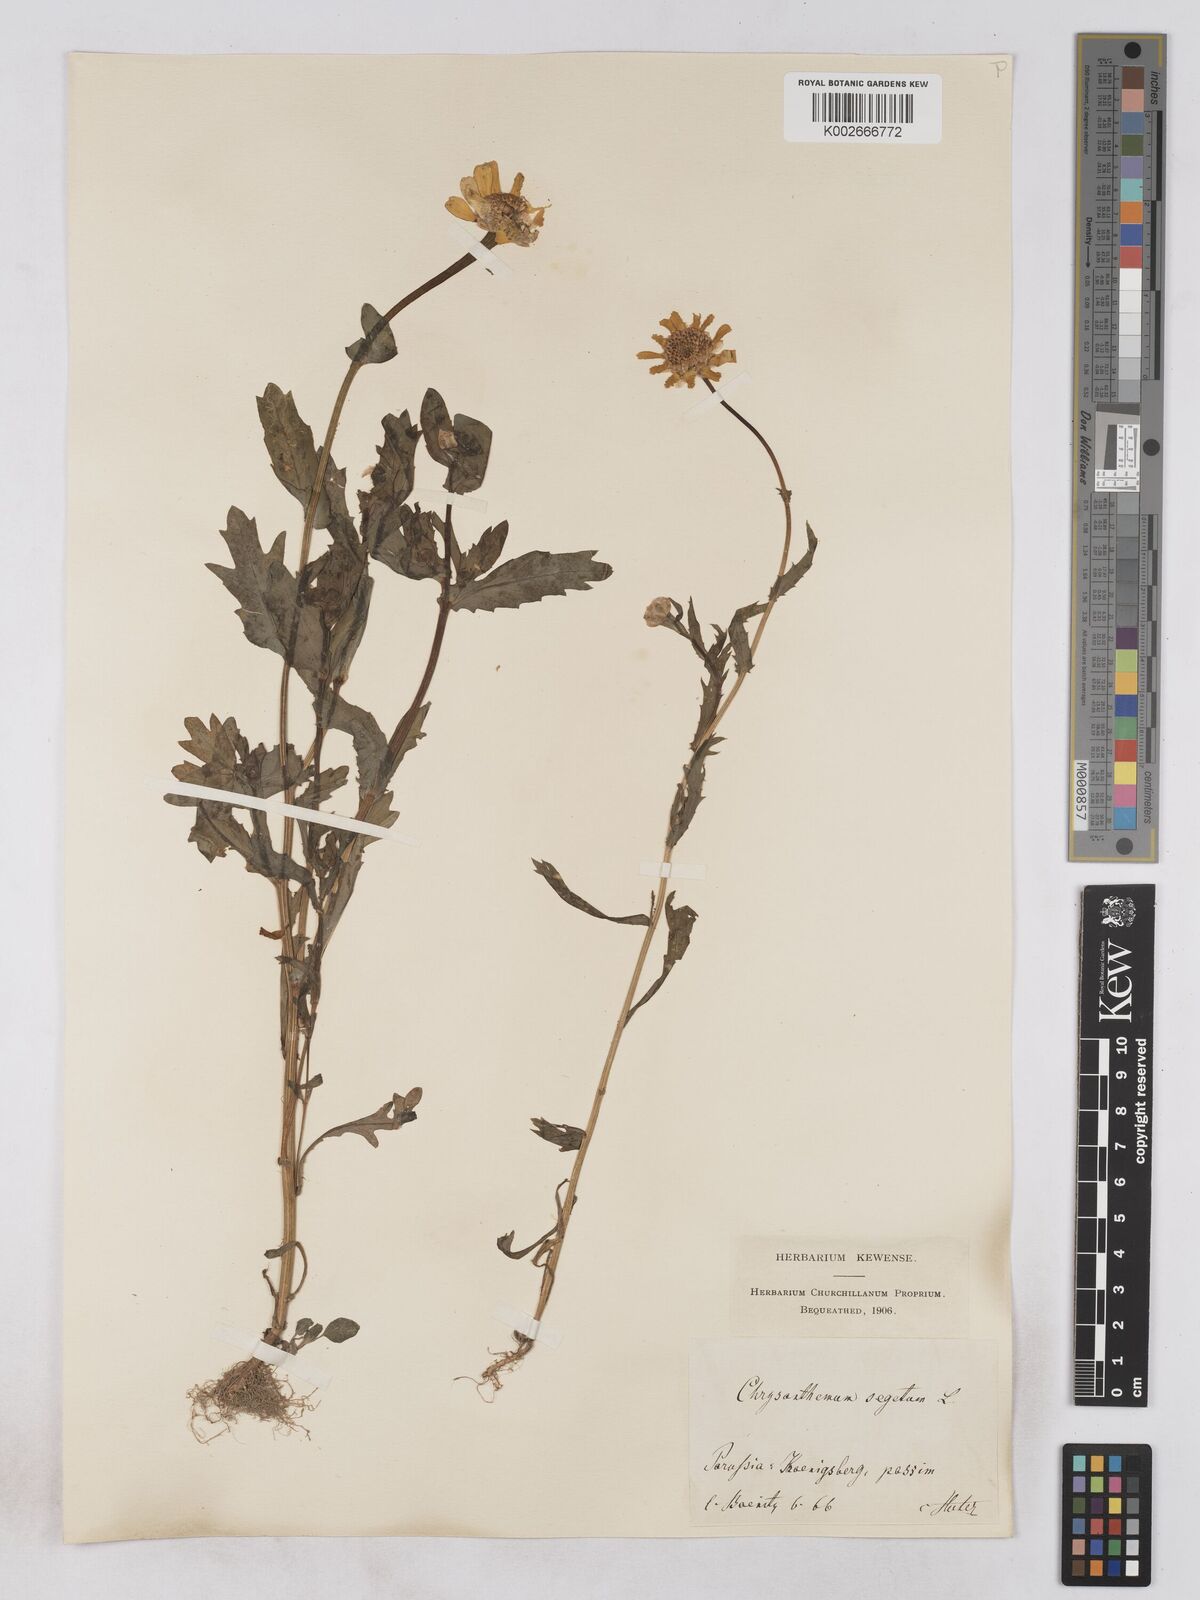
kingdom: Plantae
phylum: Tracheophyta
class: Magnoliopsida
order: Asterales
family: Asteraceae
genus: Glebionis
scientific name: Glebionis segetum
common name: Corndaisy
